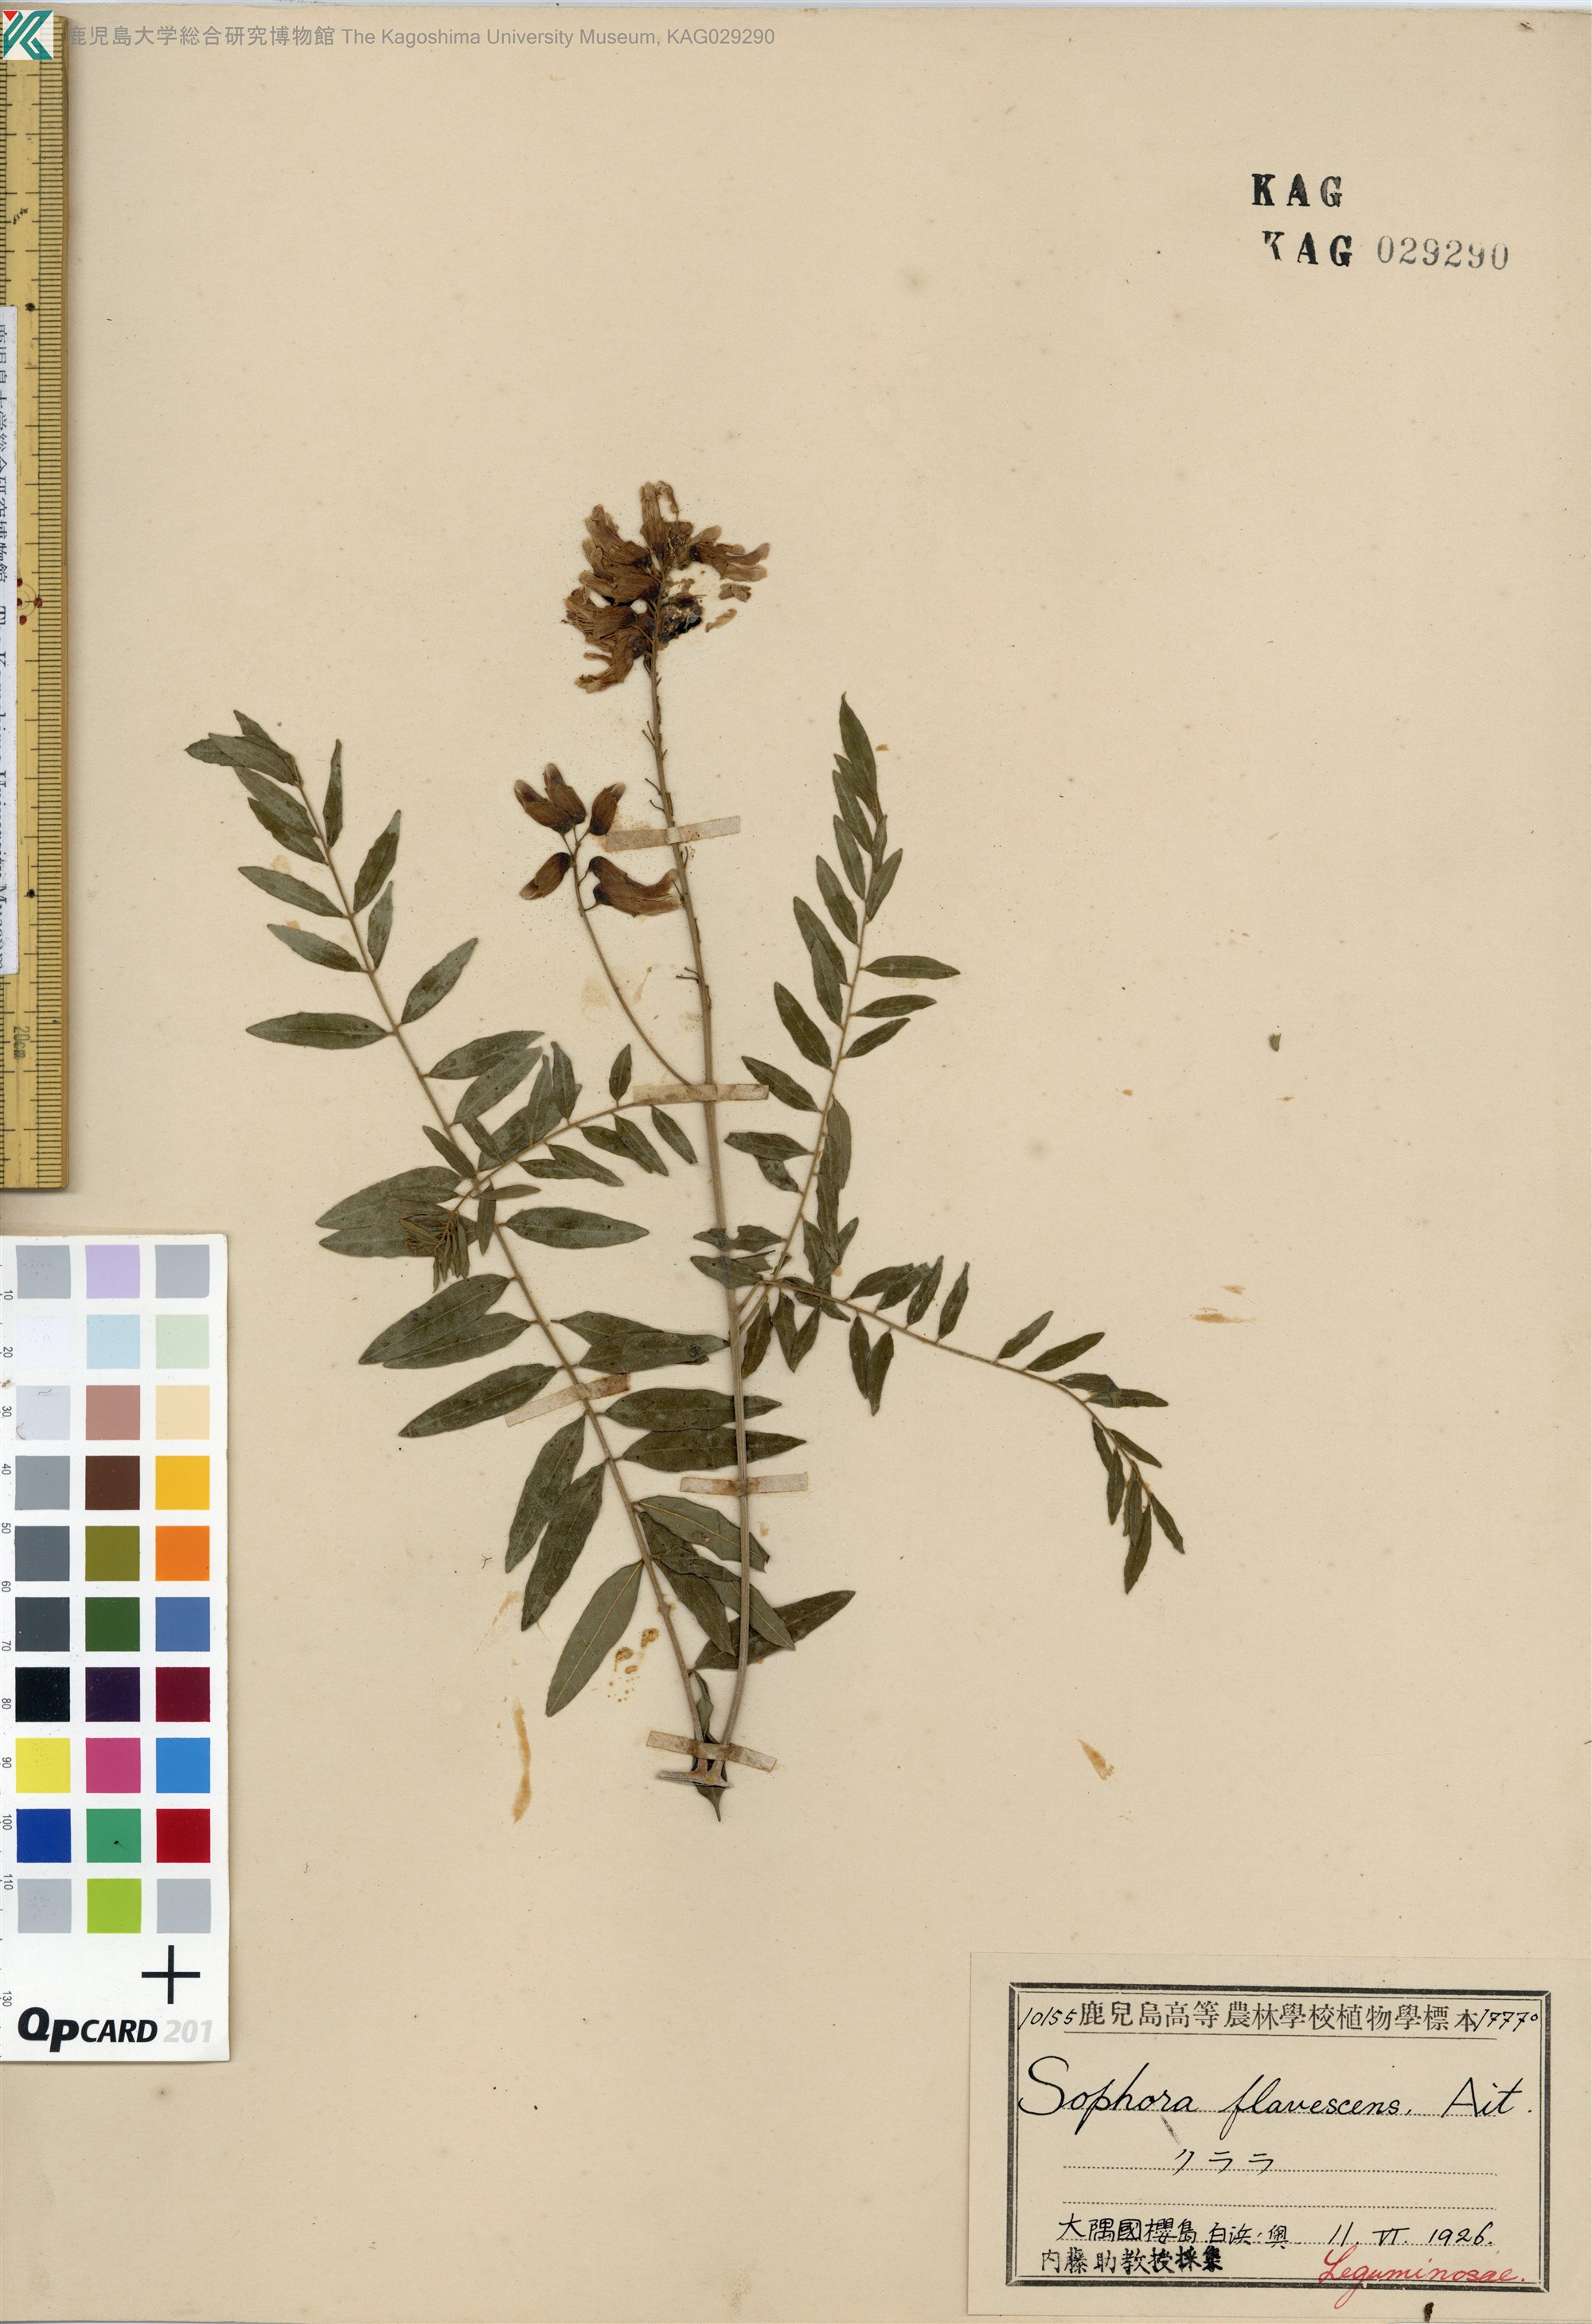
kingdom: Plantae
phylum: Tracheophyta
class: Magnoliopsida
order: Fabales
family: Fabaceae
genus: Sophora
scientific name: Sophora flavescens
